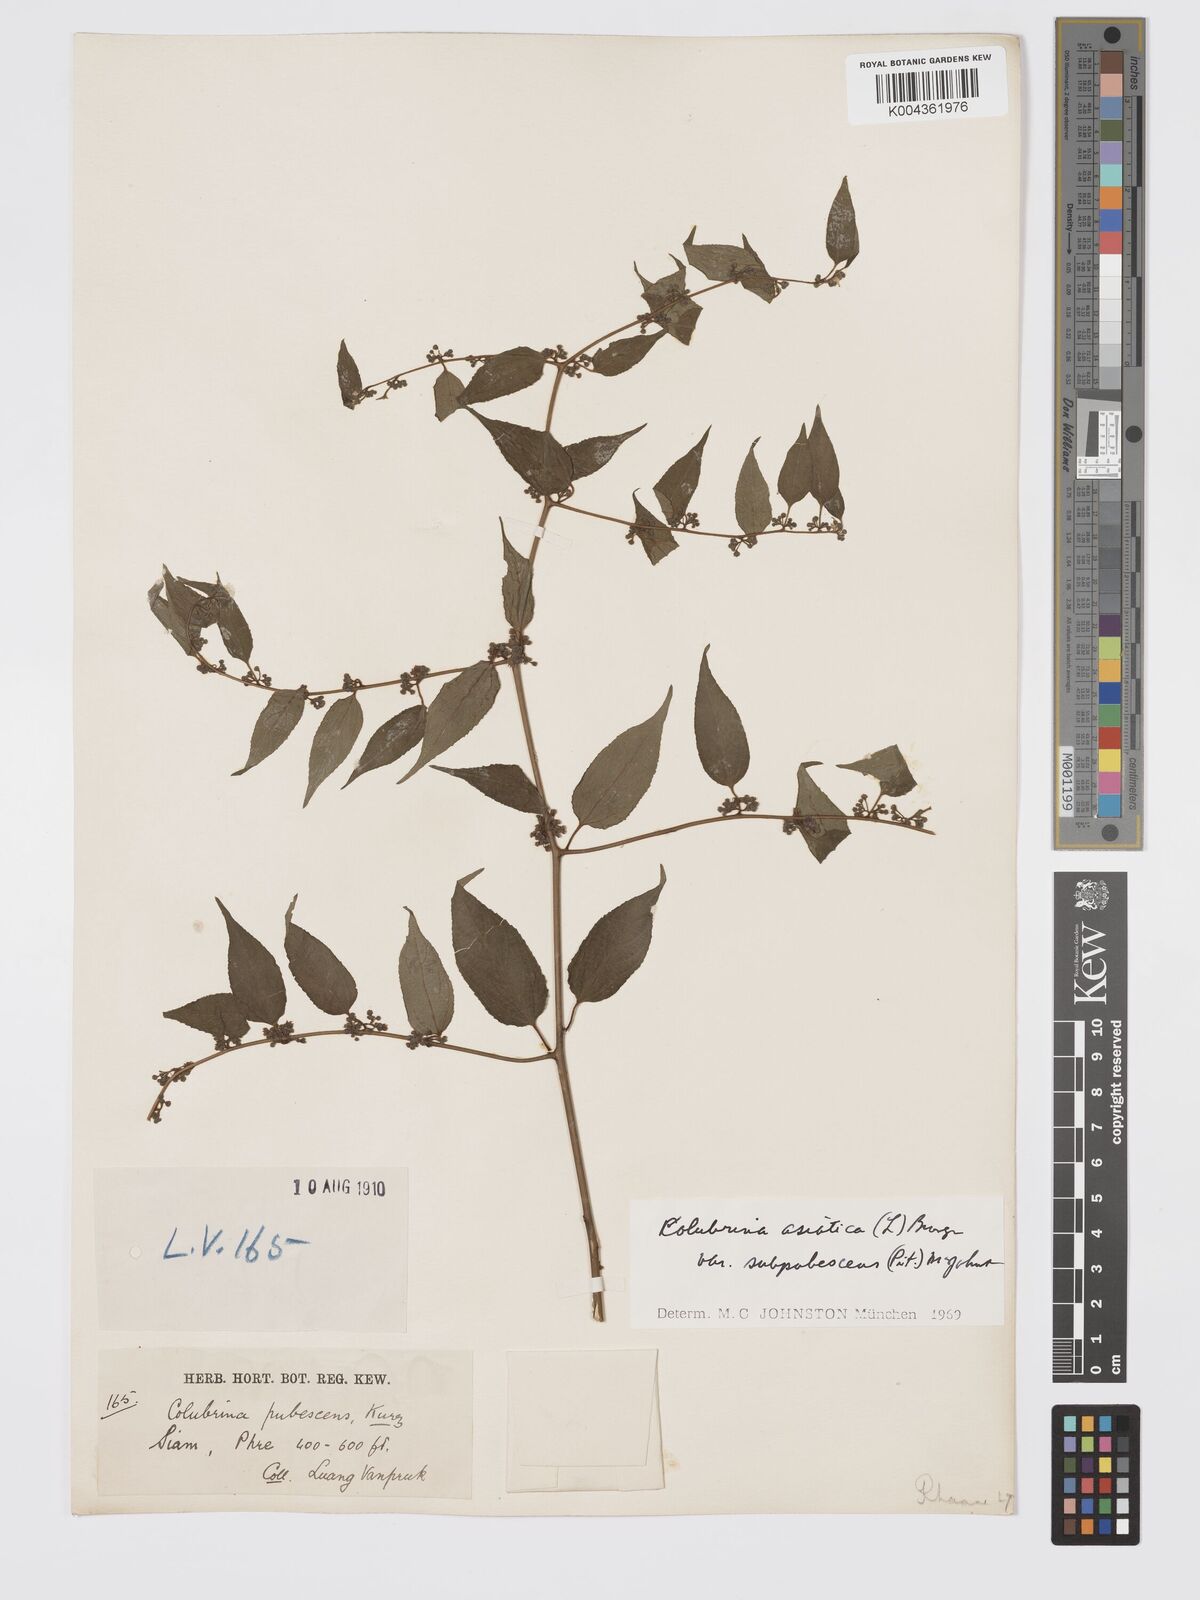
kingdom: Plantae
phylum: Tracheophyta
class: Magnoliopsida
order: Rosales
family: Rhamnaceae
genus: Colubrina
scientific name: Colubrina javanica
